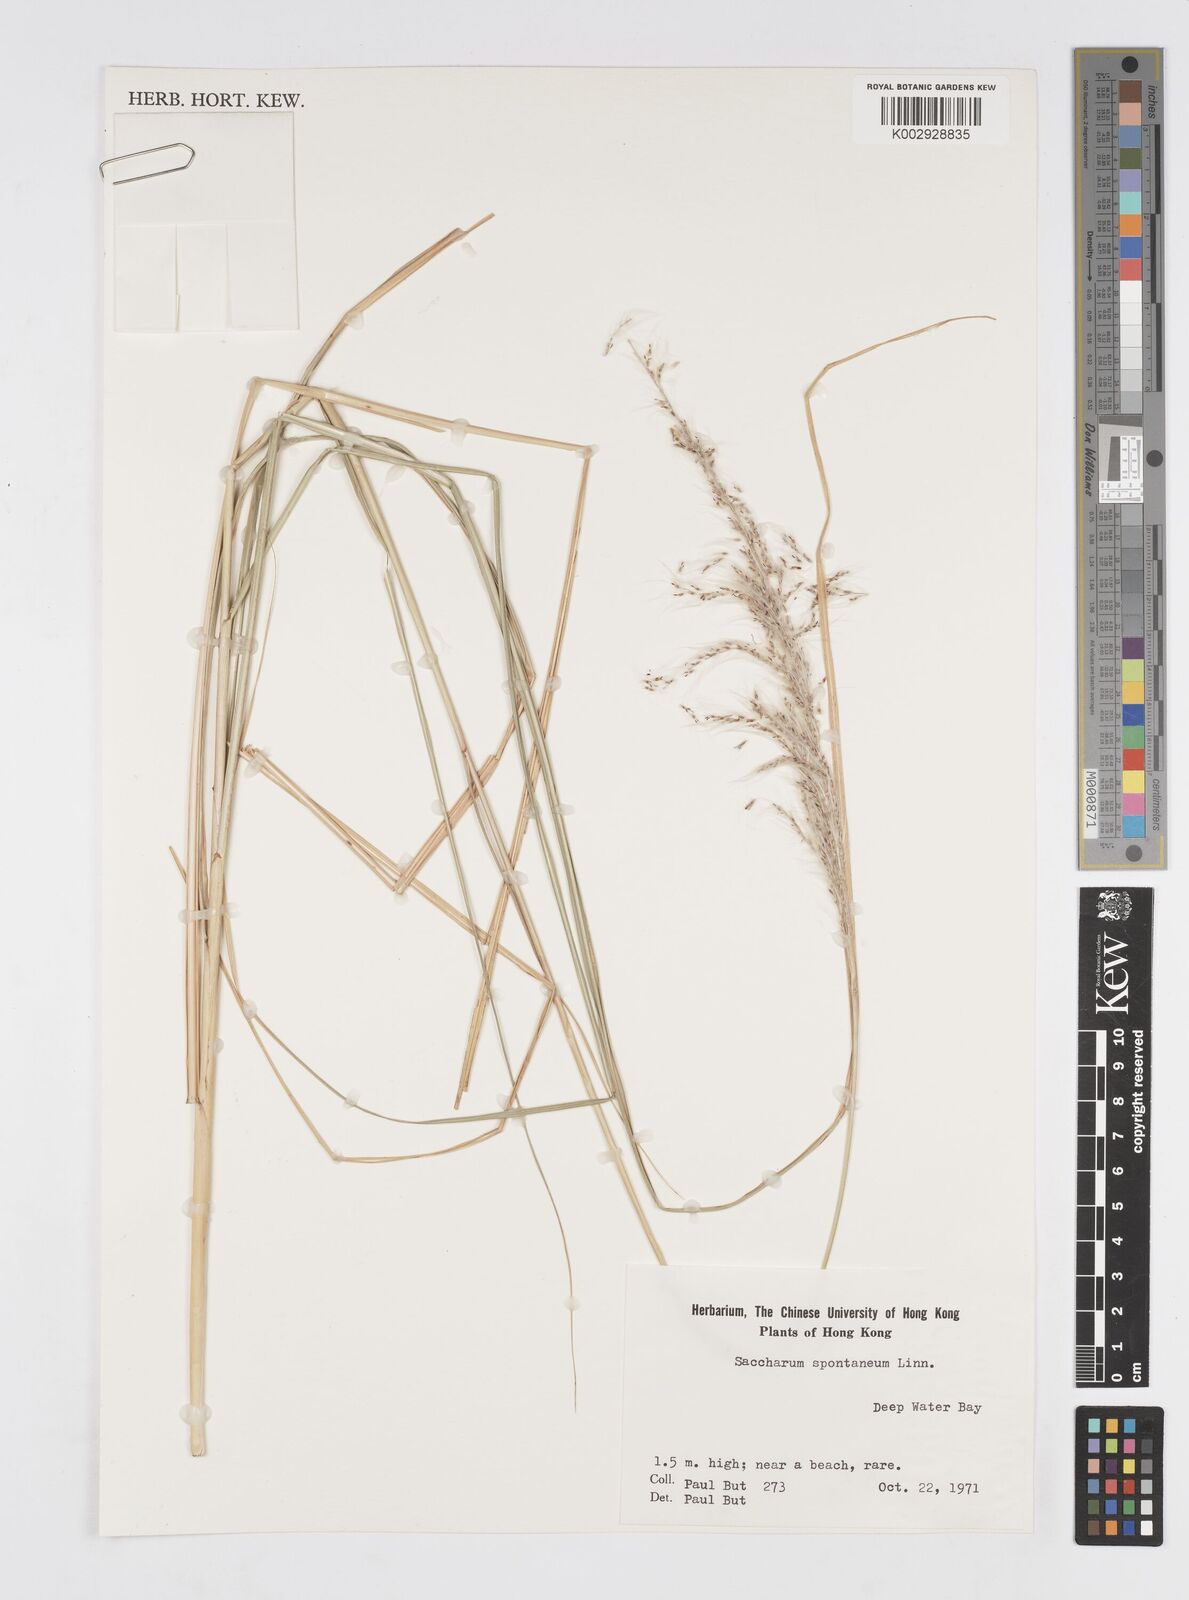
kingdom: Plantae
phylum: Tracheophyta
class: Liliopsida
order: Poales
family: Poaceae
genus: Saccharum
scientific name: Saccharum spontaneum
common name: Wild sugarcane
